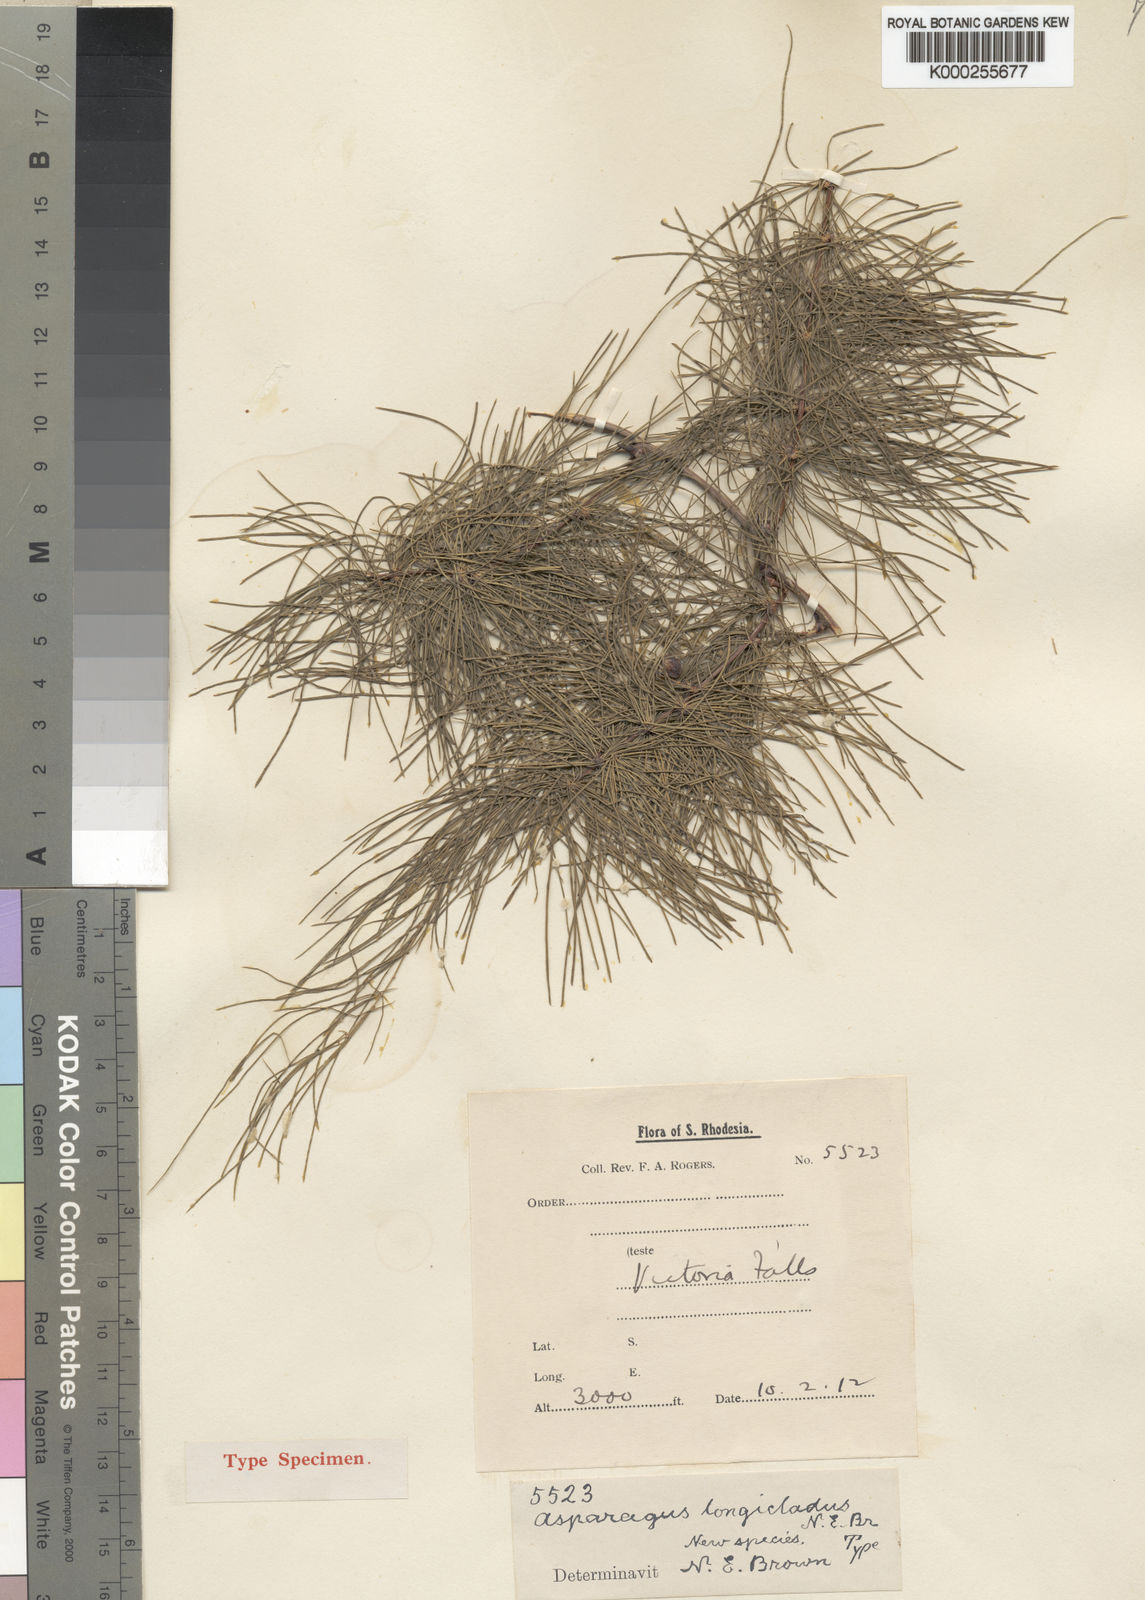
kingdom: Plantae
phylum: Tracheophyta
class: Liliopsida
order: Asparagales
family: Asparagaceae
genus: Asparagus
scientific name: Asparagus longicladus
